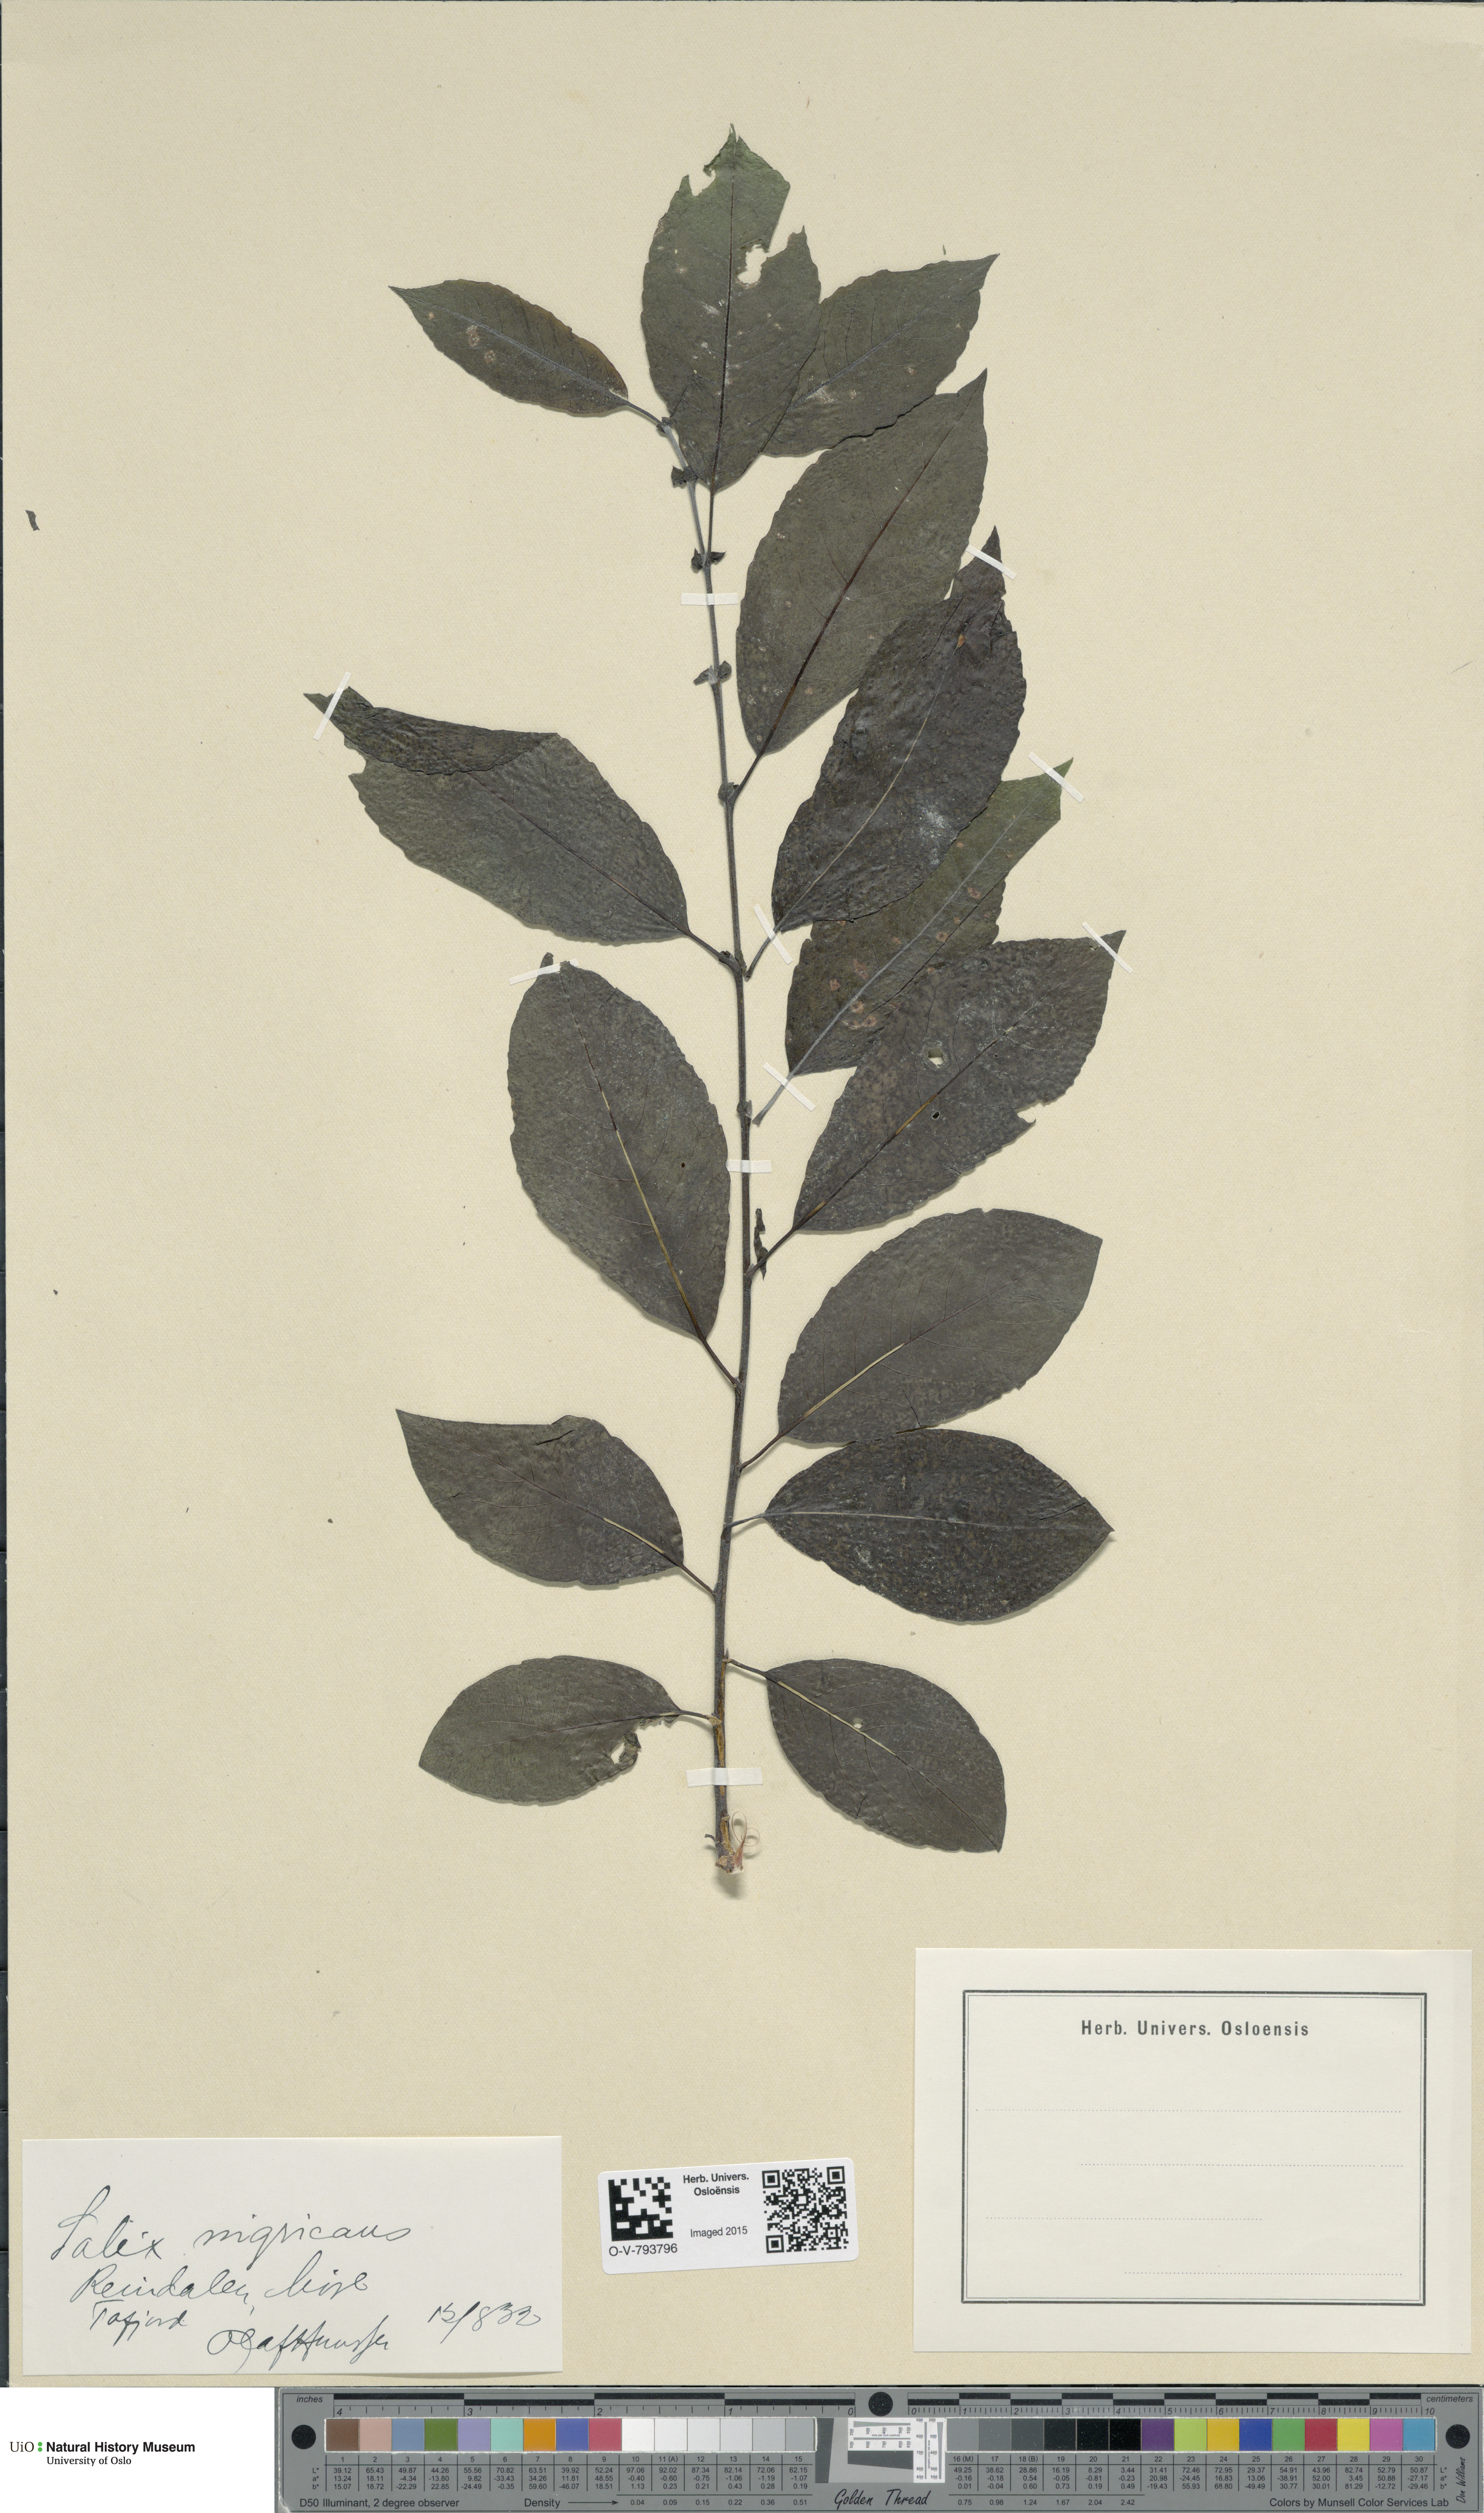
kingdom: Plantae
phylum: Tracheophyta
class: Magnoliopsida
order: Malpighiales
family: Salicaceae
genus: Salix
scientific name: Salix myrsinifolia
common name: Dark-leaved willow
